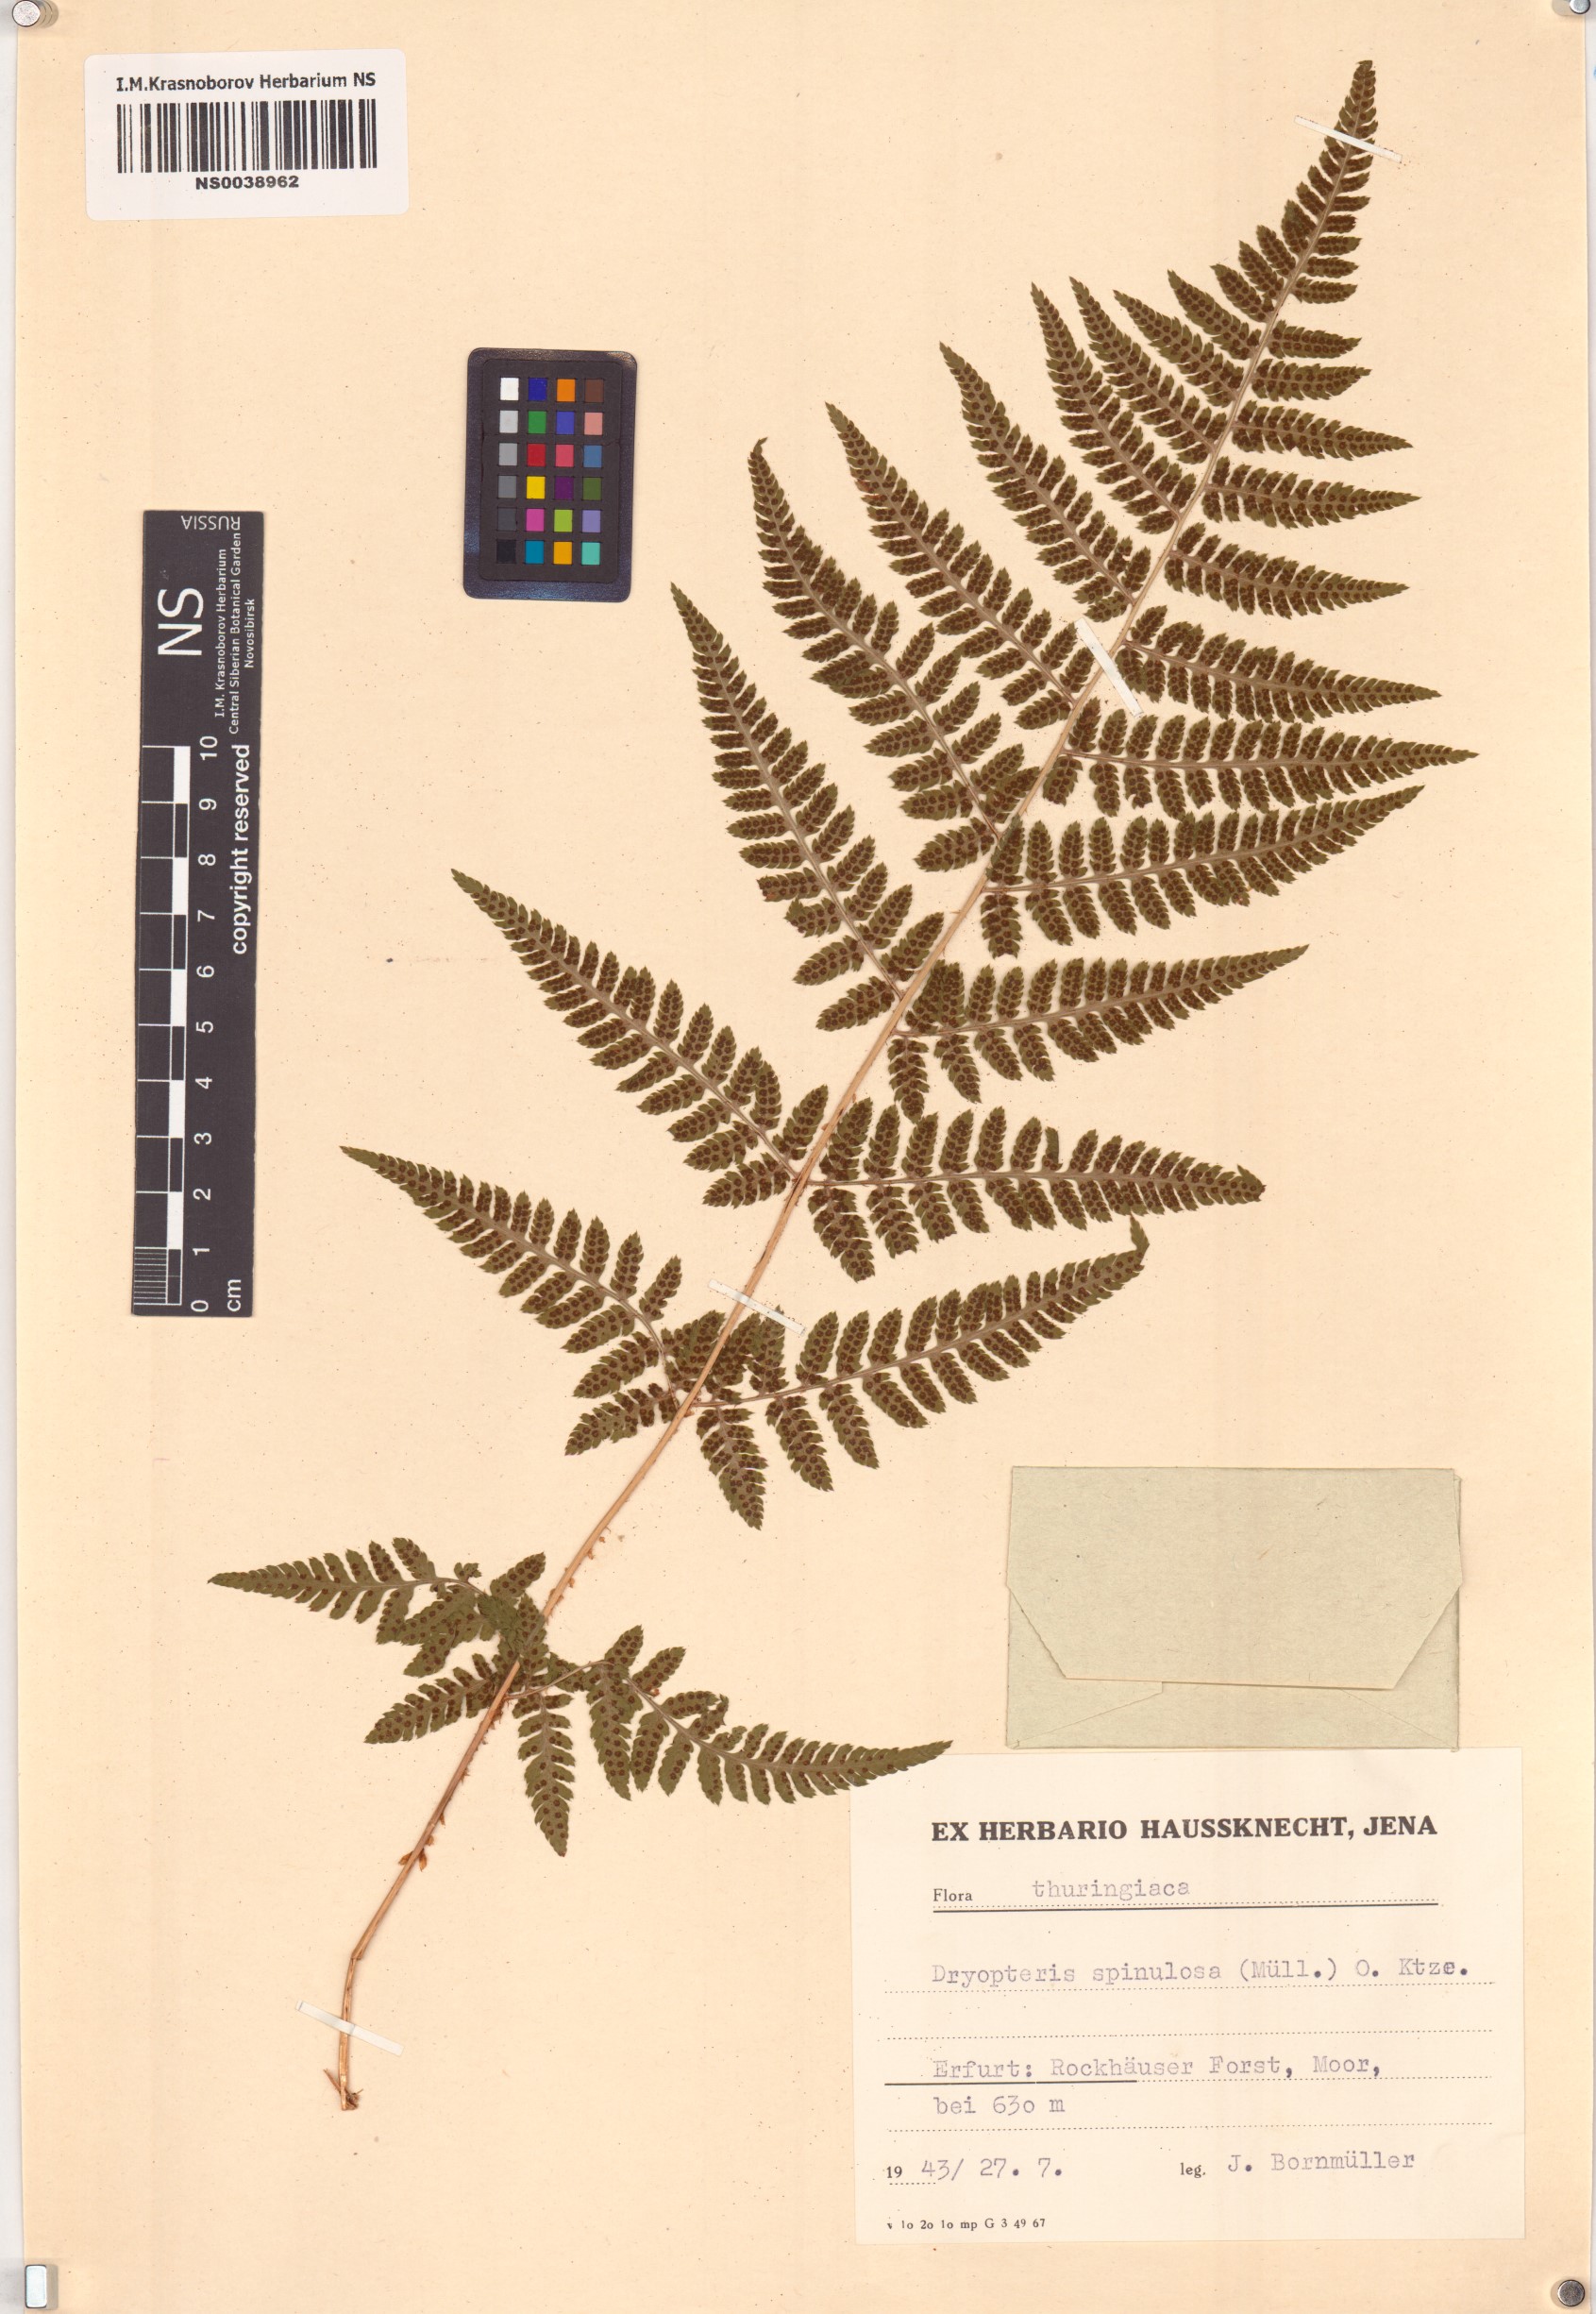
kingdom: Plantae
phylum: Tracheophyta
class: Polypodiopsida
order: Polypodiales
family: Dryopteridaceae
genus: Dryopteris
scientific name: Dryopteris carthusiana
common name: Narrow buckler-fern
